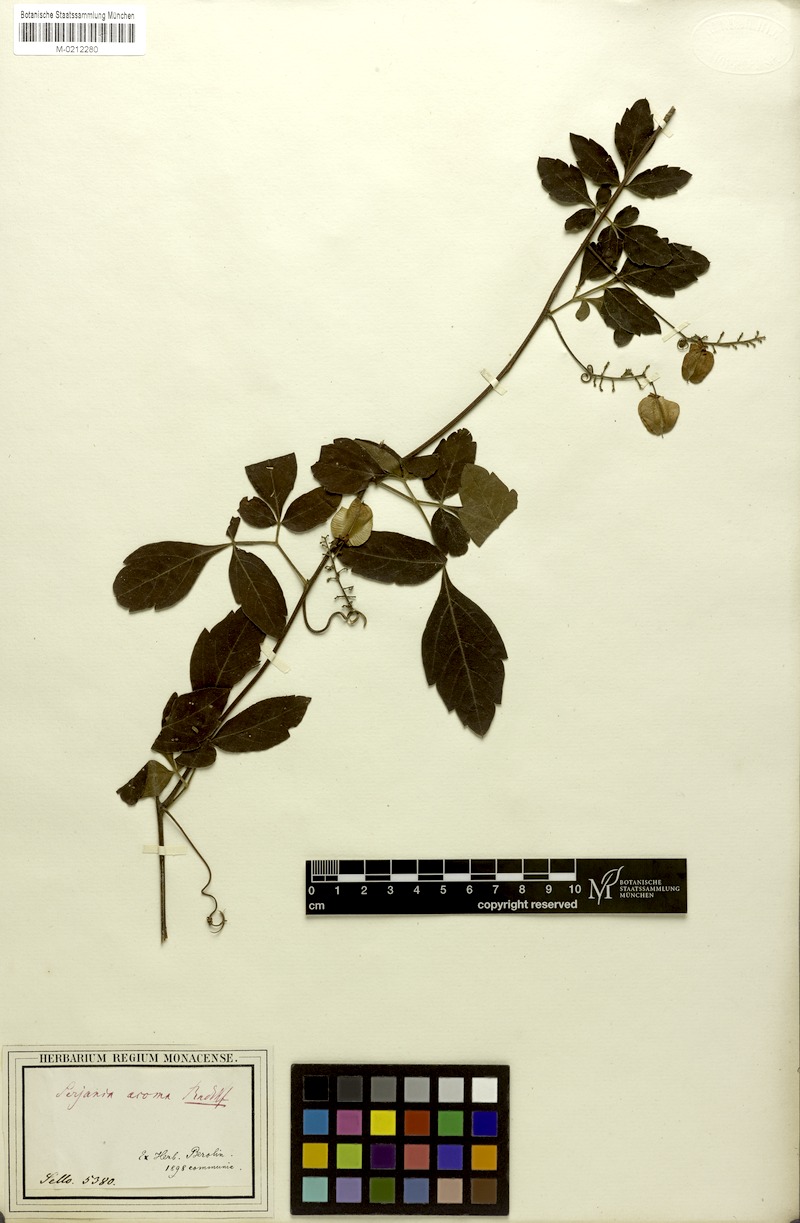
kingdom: Plantae
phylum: Tracheophyta
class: Magnoliopsida
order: Sapindales
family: Sapindaceae
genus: Serjania
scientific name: Serjania acoma
